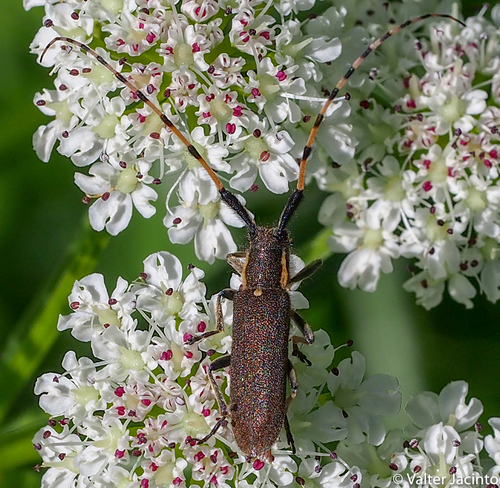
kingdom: Animalia
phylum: Arthropoda
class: Insecta
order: Coleoptera
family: Cerambycidae
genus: Agapanthia
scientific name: Agapanthia annularis
